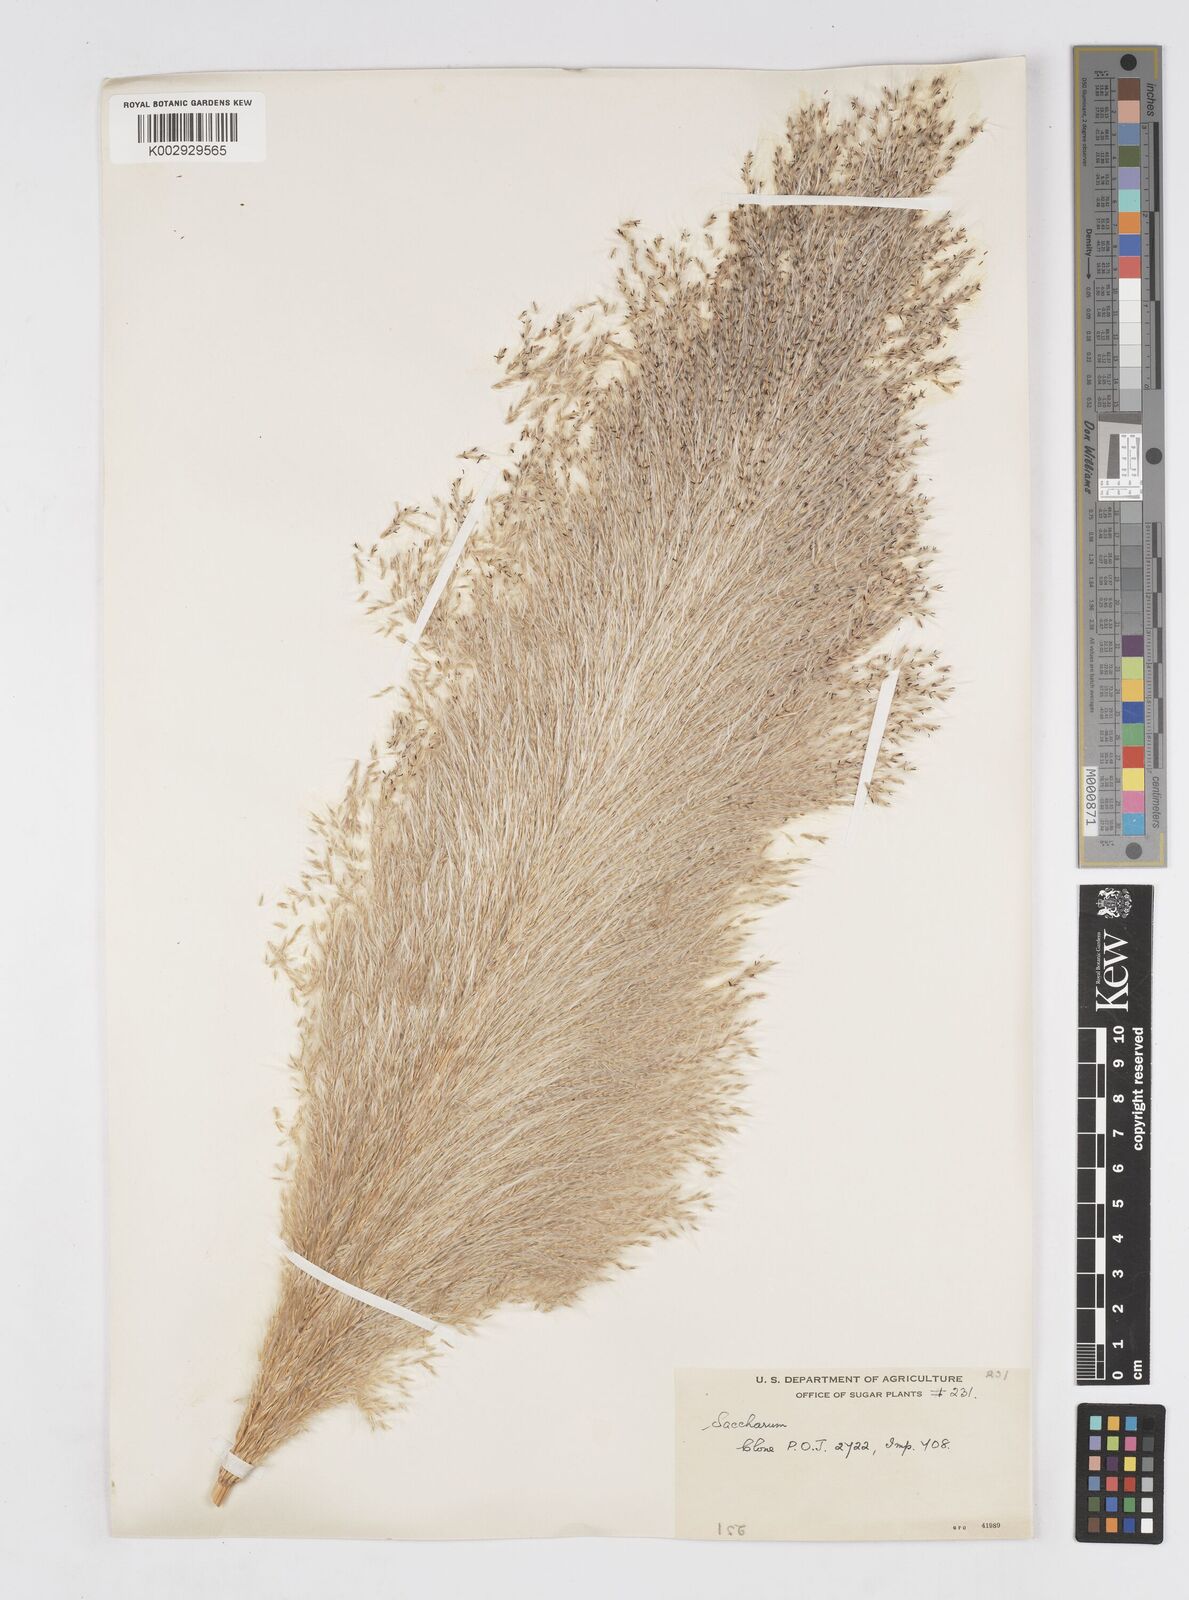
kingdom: Plantae
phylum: Tracheophyta
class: Liliopsida
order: Poales
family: Poaceae
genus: Saccharum
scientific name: Saccharum officinarum
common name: Sugarcane
